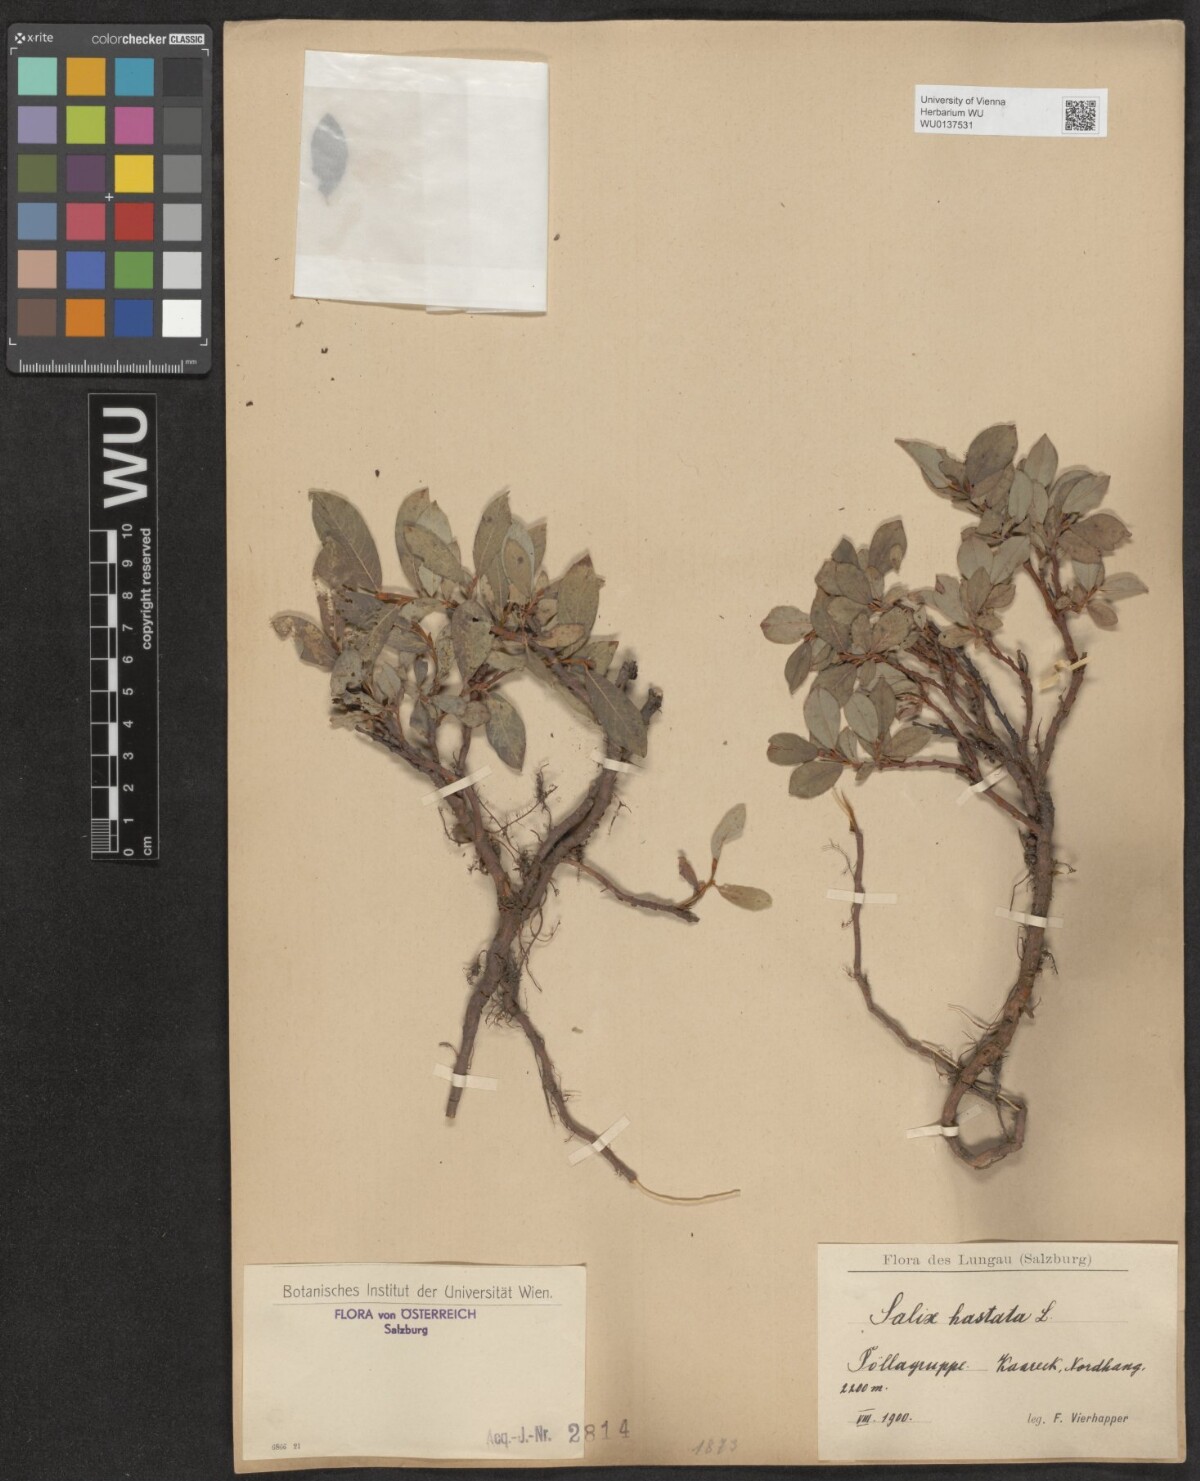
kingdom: Plantae
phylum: Tracheophyta
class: Magnoliopsida
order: Malpighiales
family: Salicaceae
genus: Salix
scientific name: Salix hastata
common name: Halberd willow
